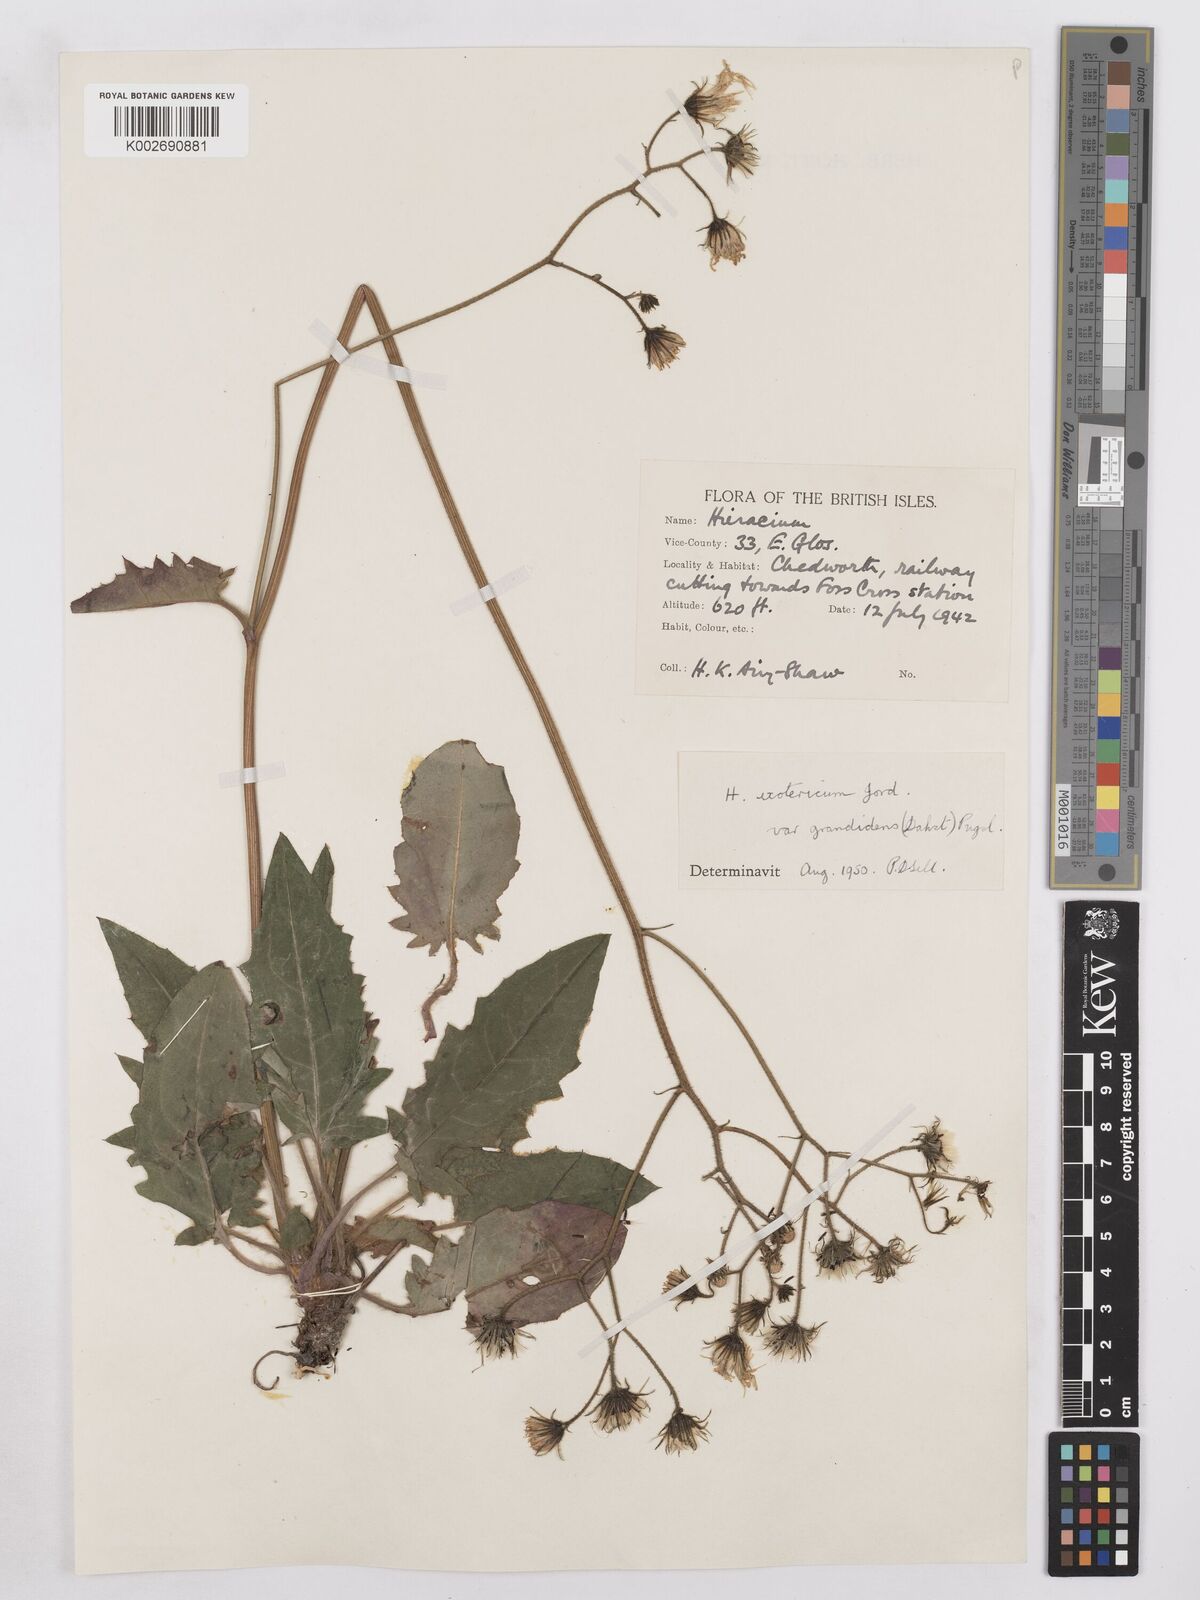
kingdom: Plantae
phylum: Tracheophyta
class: Magnoliopsida
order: Asterales
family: Asteraceae
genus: Hieracium
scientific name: Hieracium murorum
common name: Wall hawkweed
